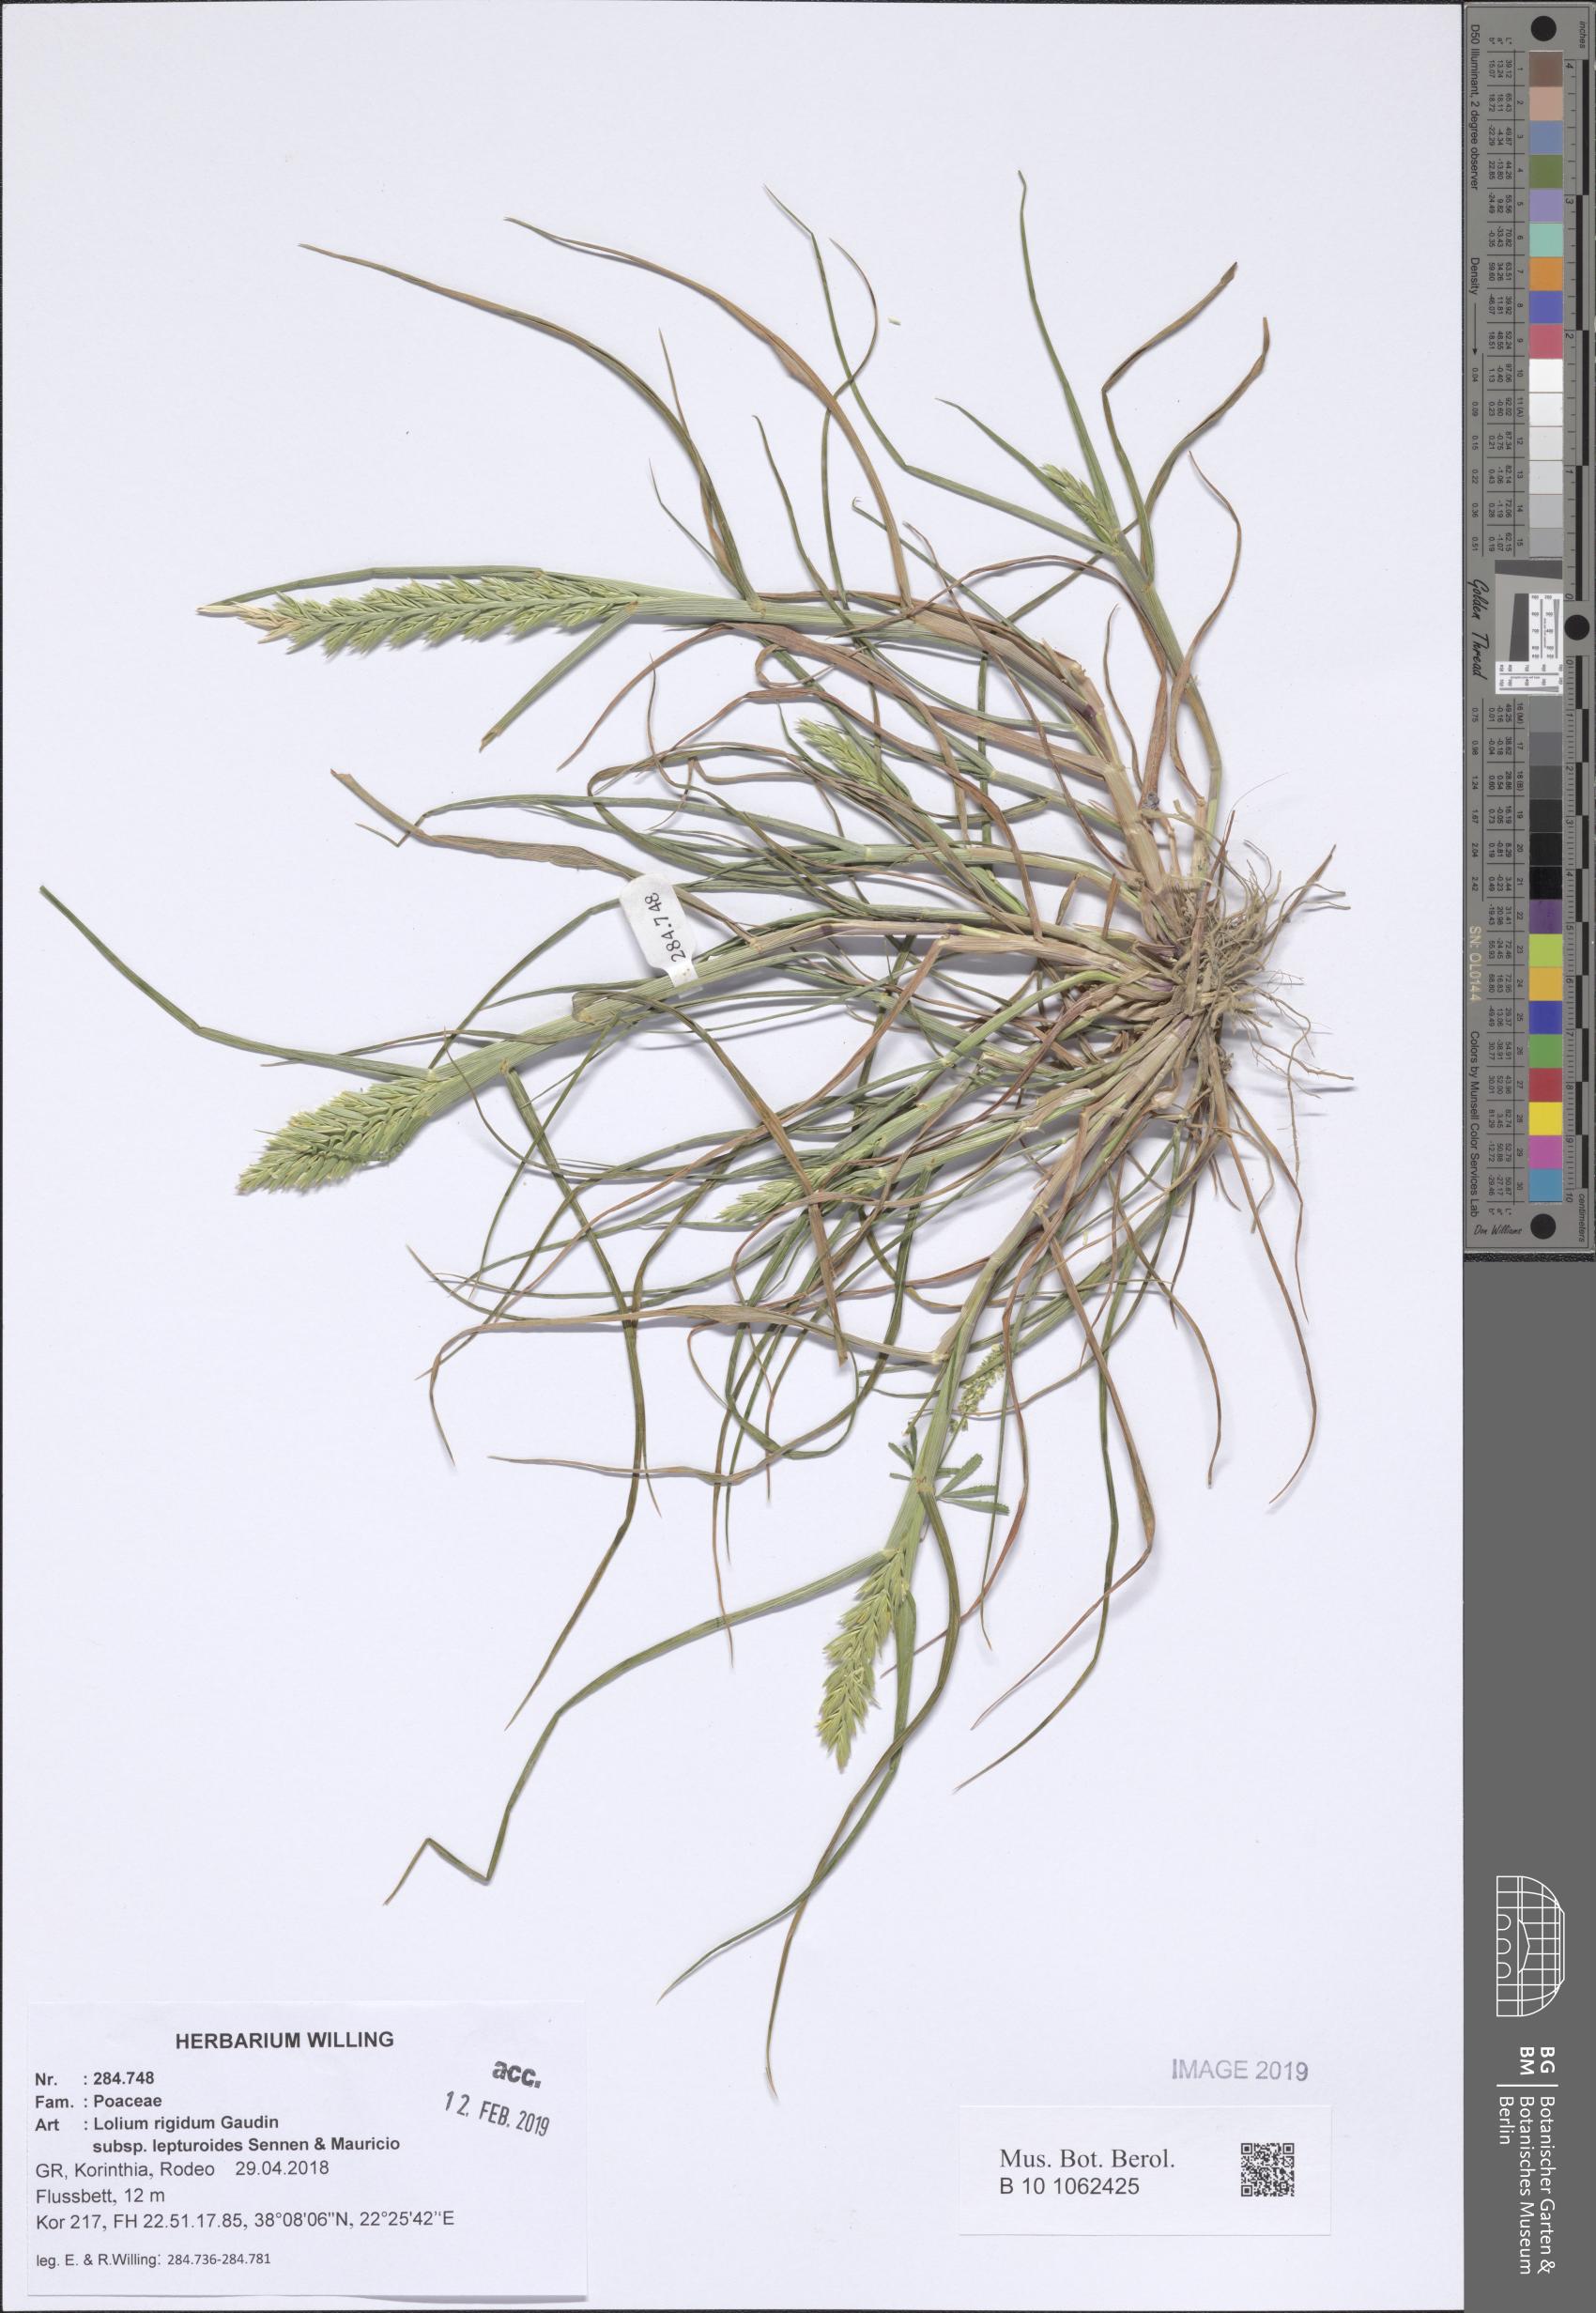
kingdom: Plantae
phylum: Tracheophyta
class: Liliopsida
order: Poales
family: Poaceae
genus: Lolium
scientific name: Lolium rigidum
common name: Wimmera ryegrass
